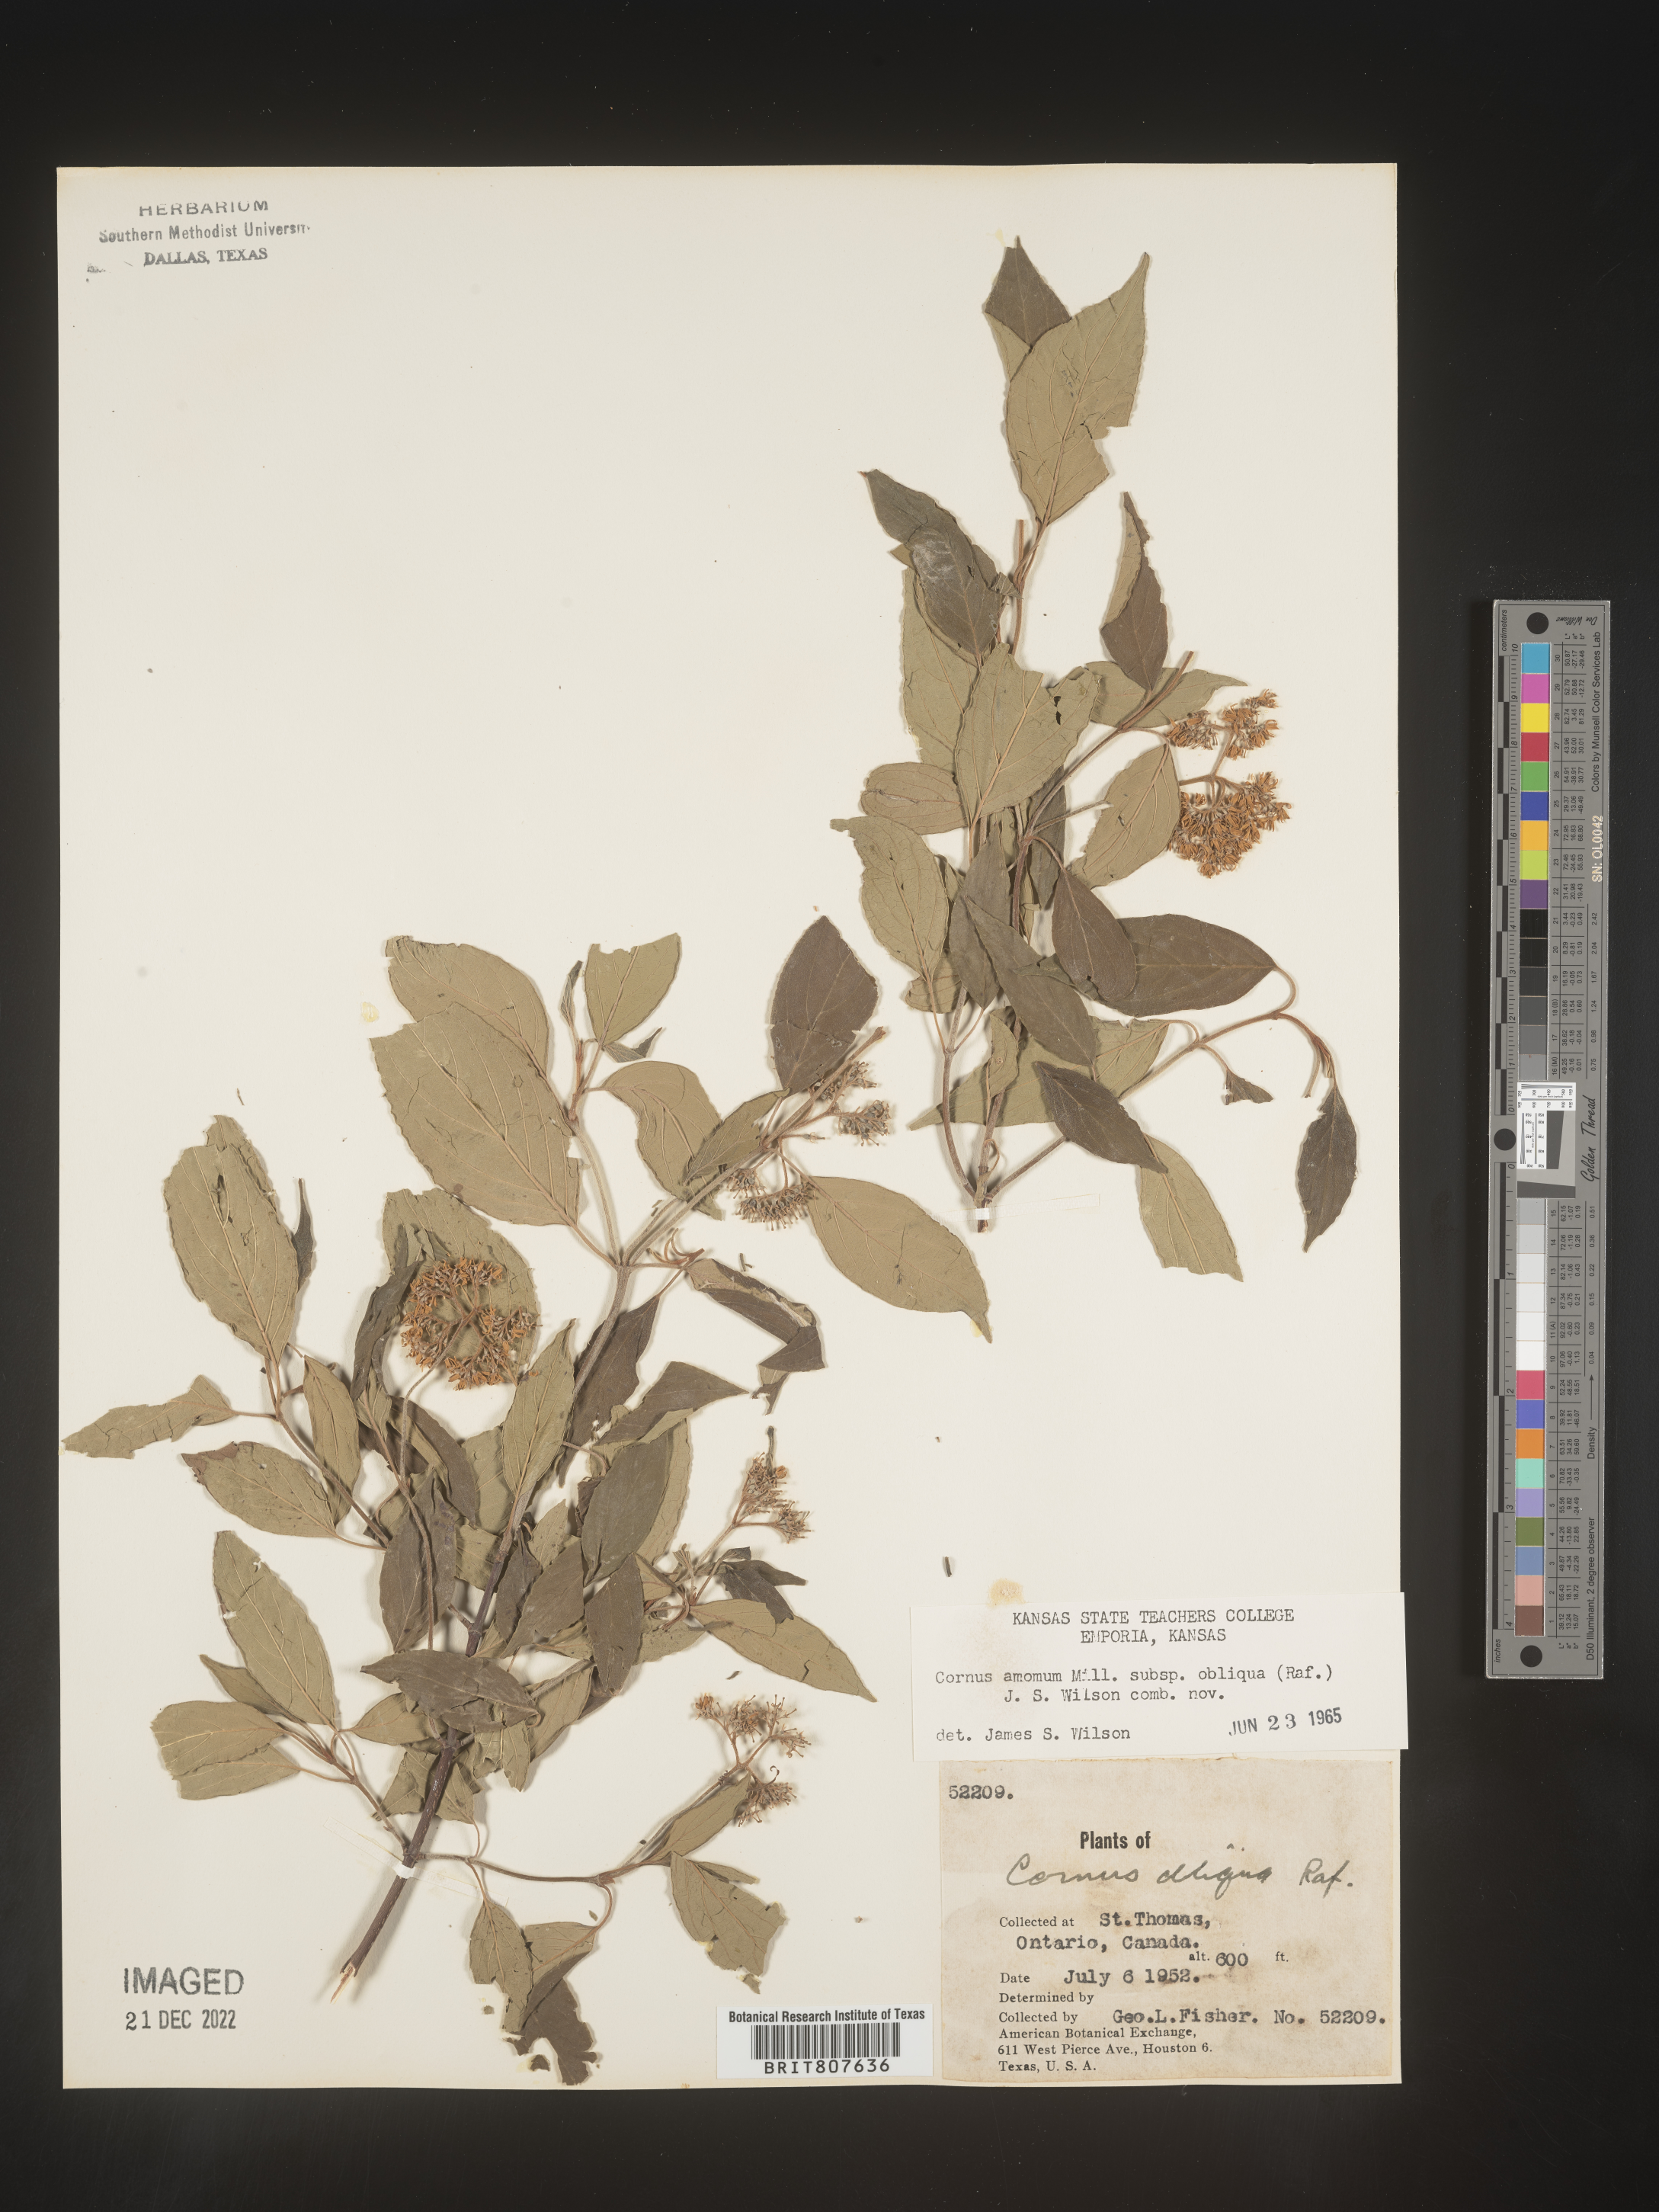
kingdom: Plantae
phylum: Tracheophyta
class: Magnoliopsida
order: Cornales
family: Cornaceae
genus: Cornus
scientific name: Cornus obliqua
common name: Pale dogwood
